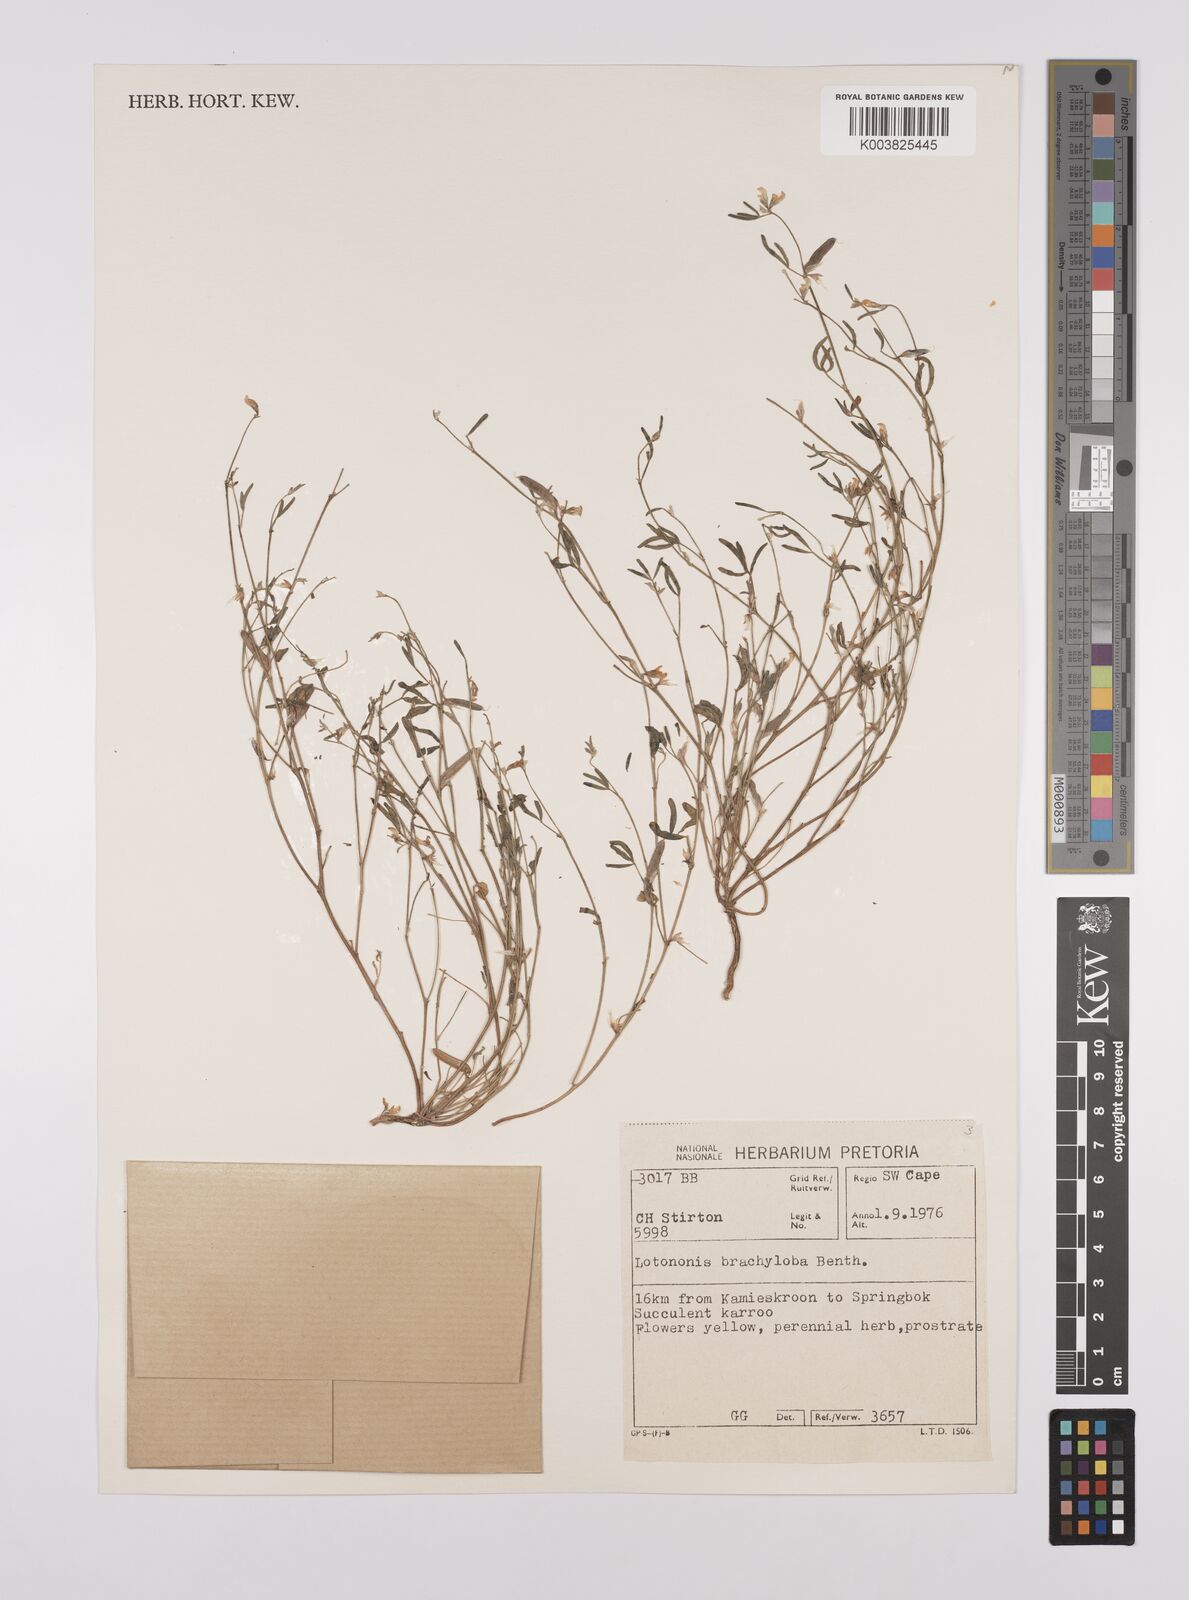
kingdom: Plantae
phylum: Tracheophyta
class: Magnoliopsida
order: Fabales
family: Fabaceae
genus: Lotononis
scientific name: Lotononis parviflora
